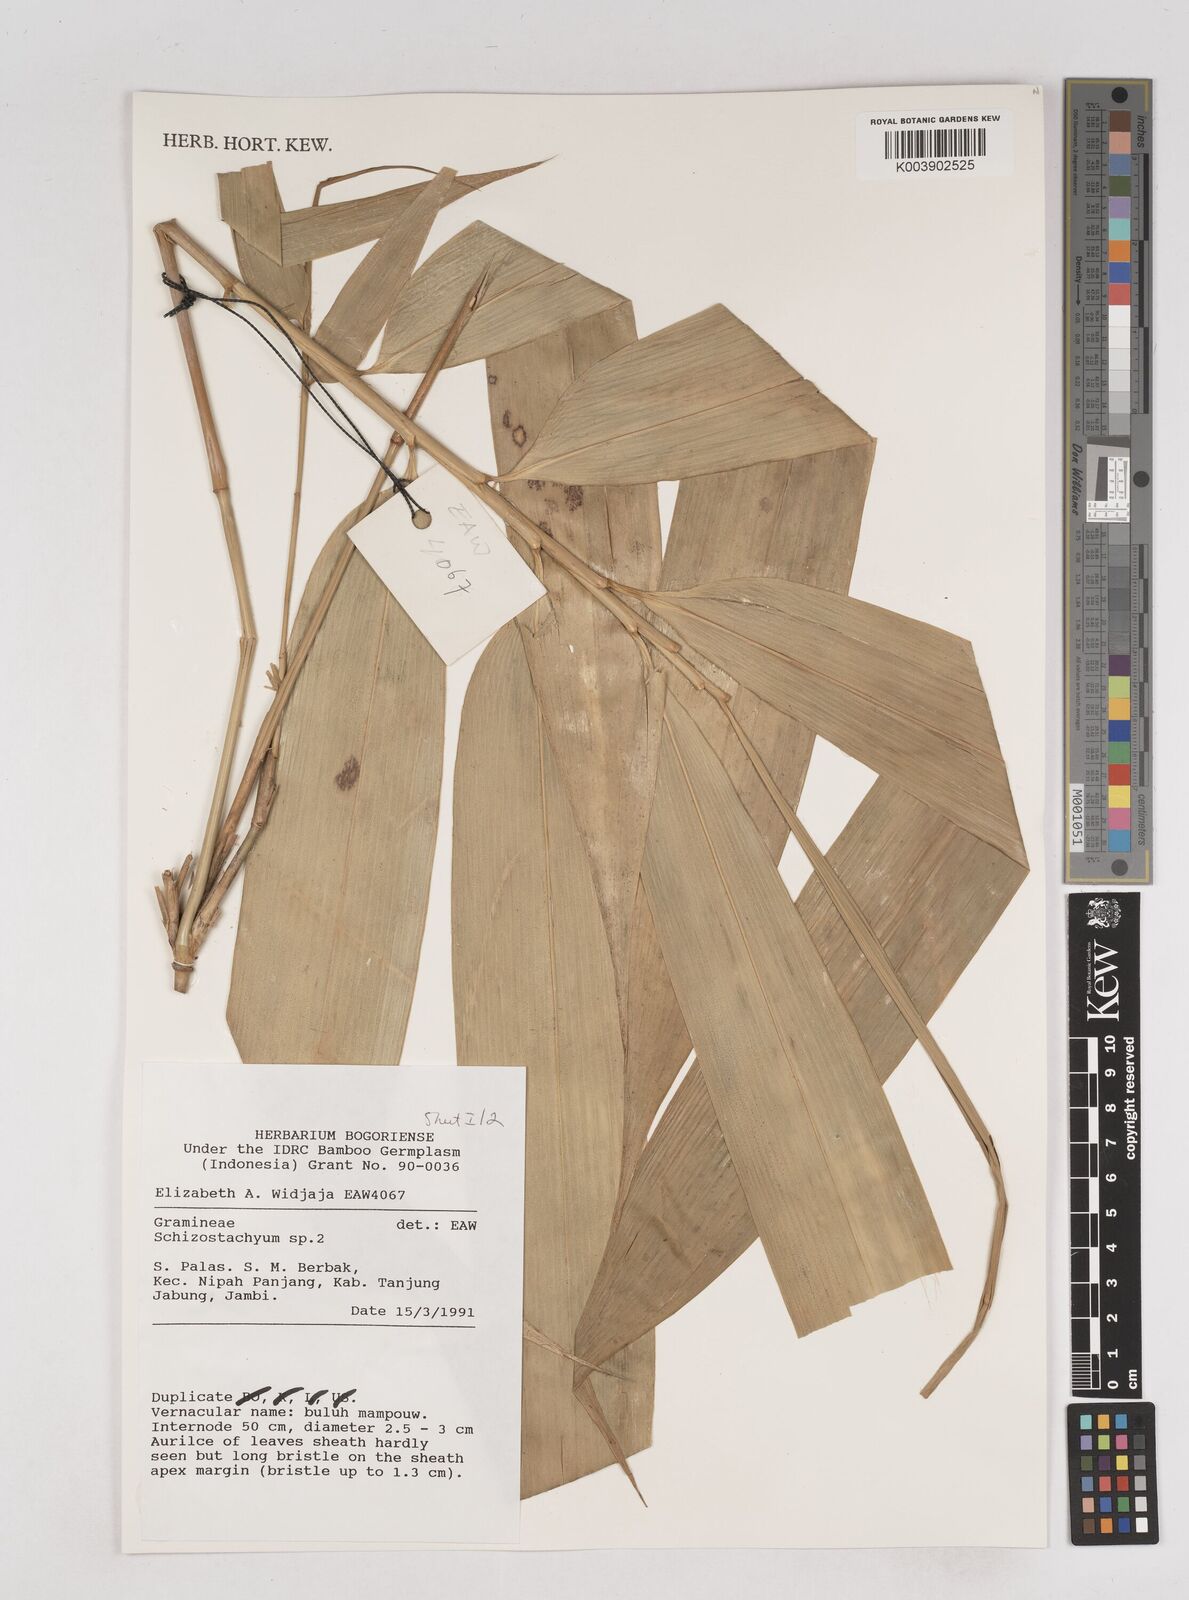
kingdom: Plantae
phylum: Tracheophyta
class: Liliopsida
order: Poales
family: Poaceae
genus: Schizostachyum
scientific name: Schizostachyum
